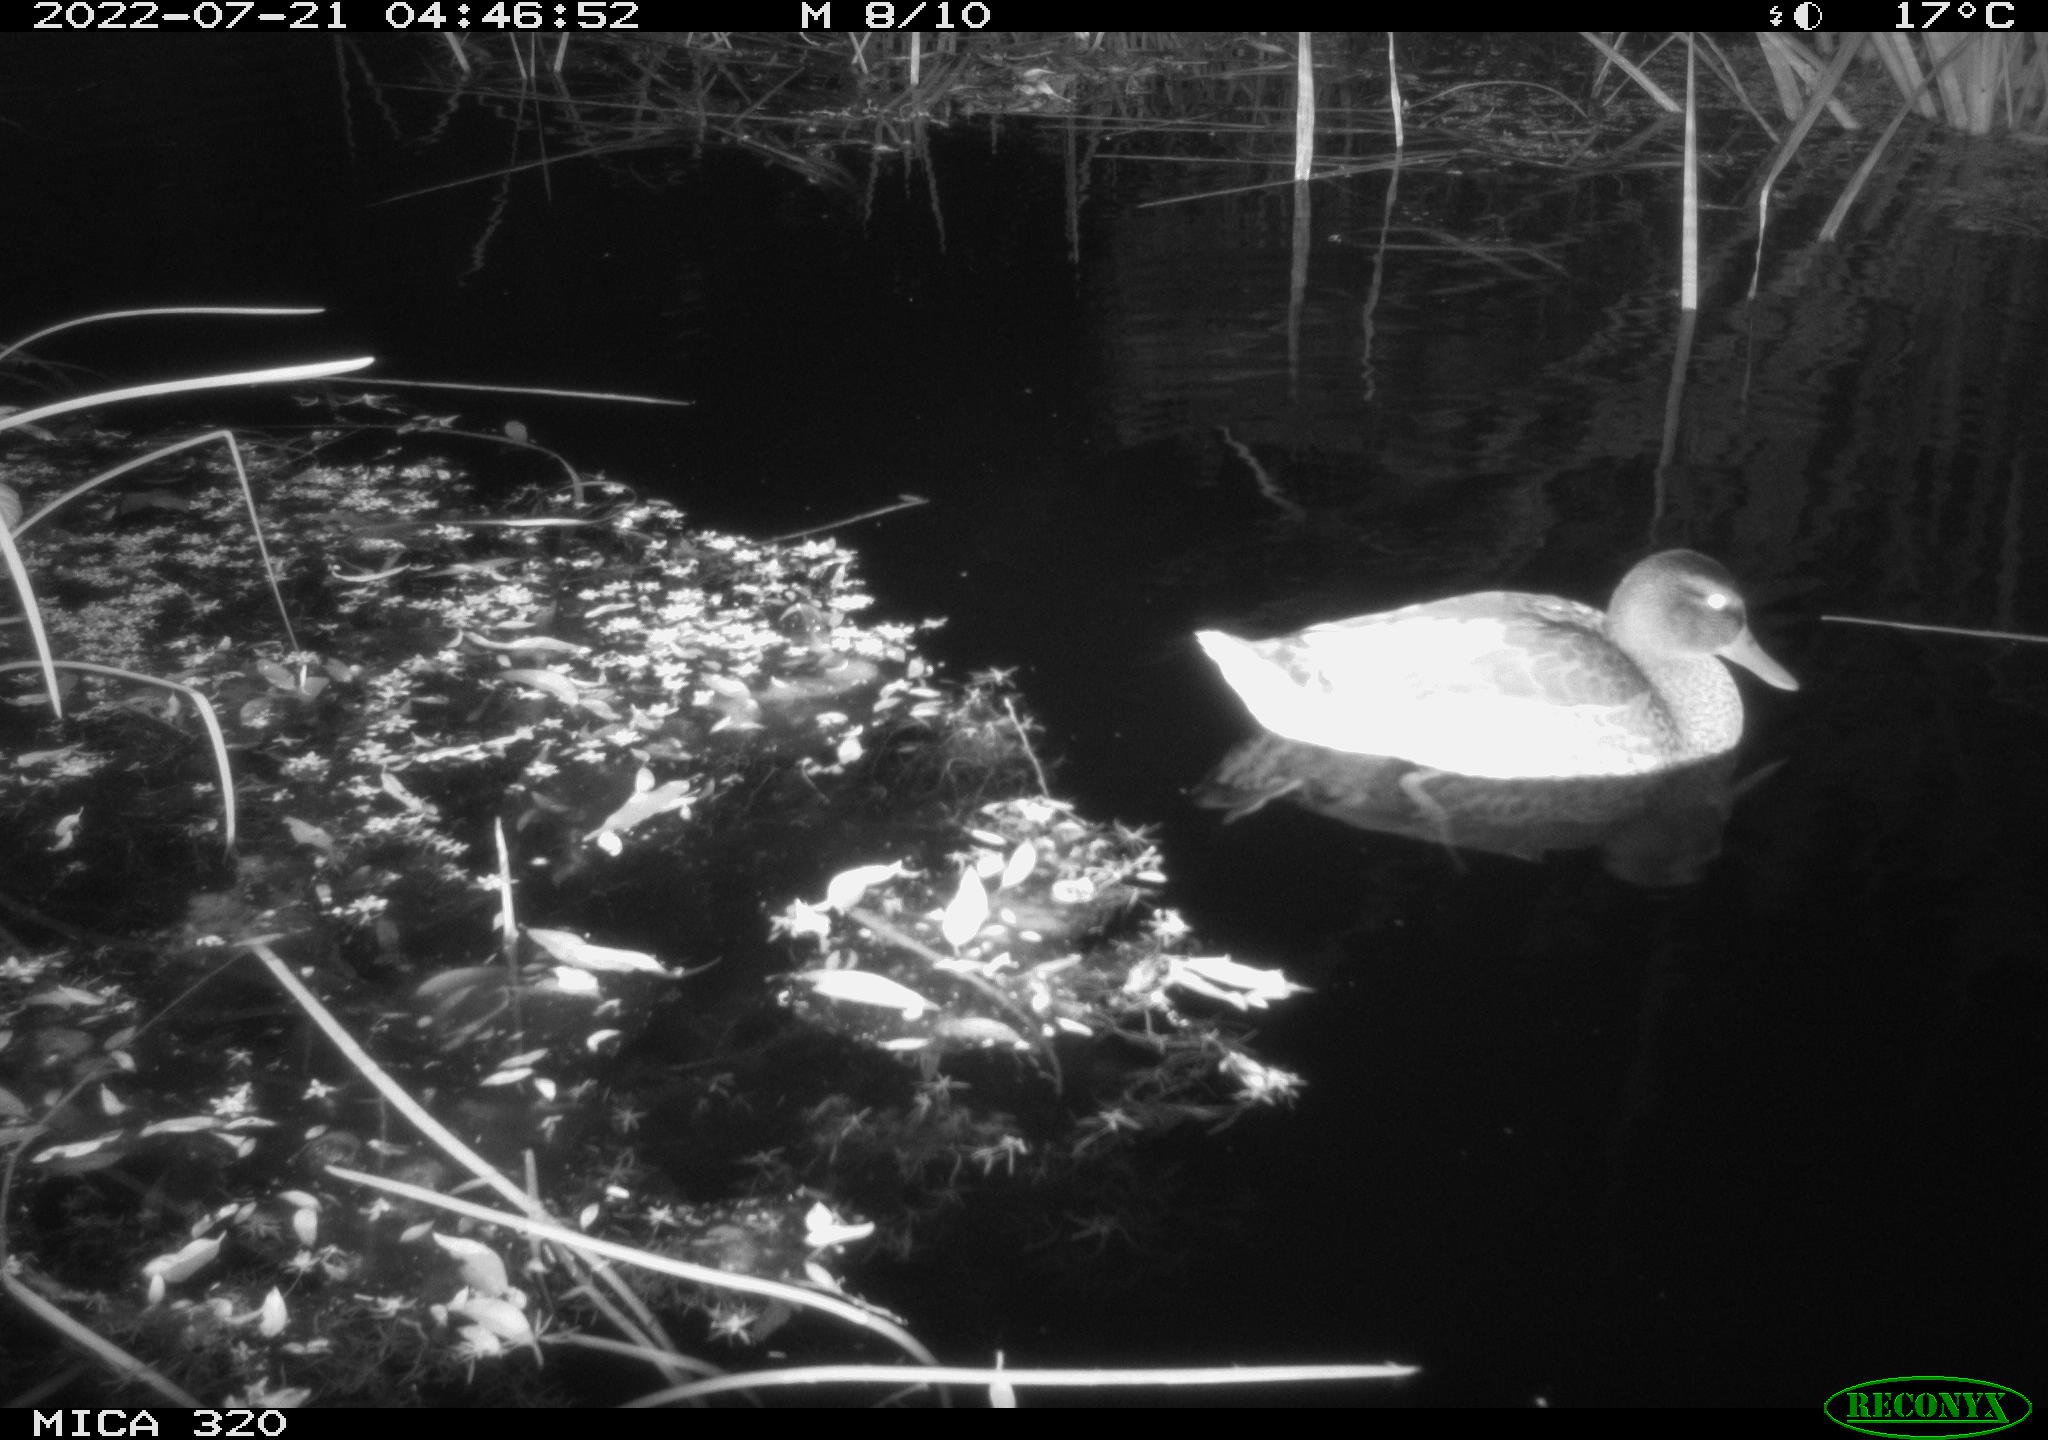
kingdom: Animalia
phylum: Chordata
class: Aves
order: Anseriformes
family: Anatidae
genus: Anas
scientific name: Anas platyrhynchos
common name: Mallard
